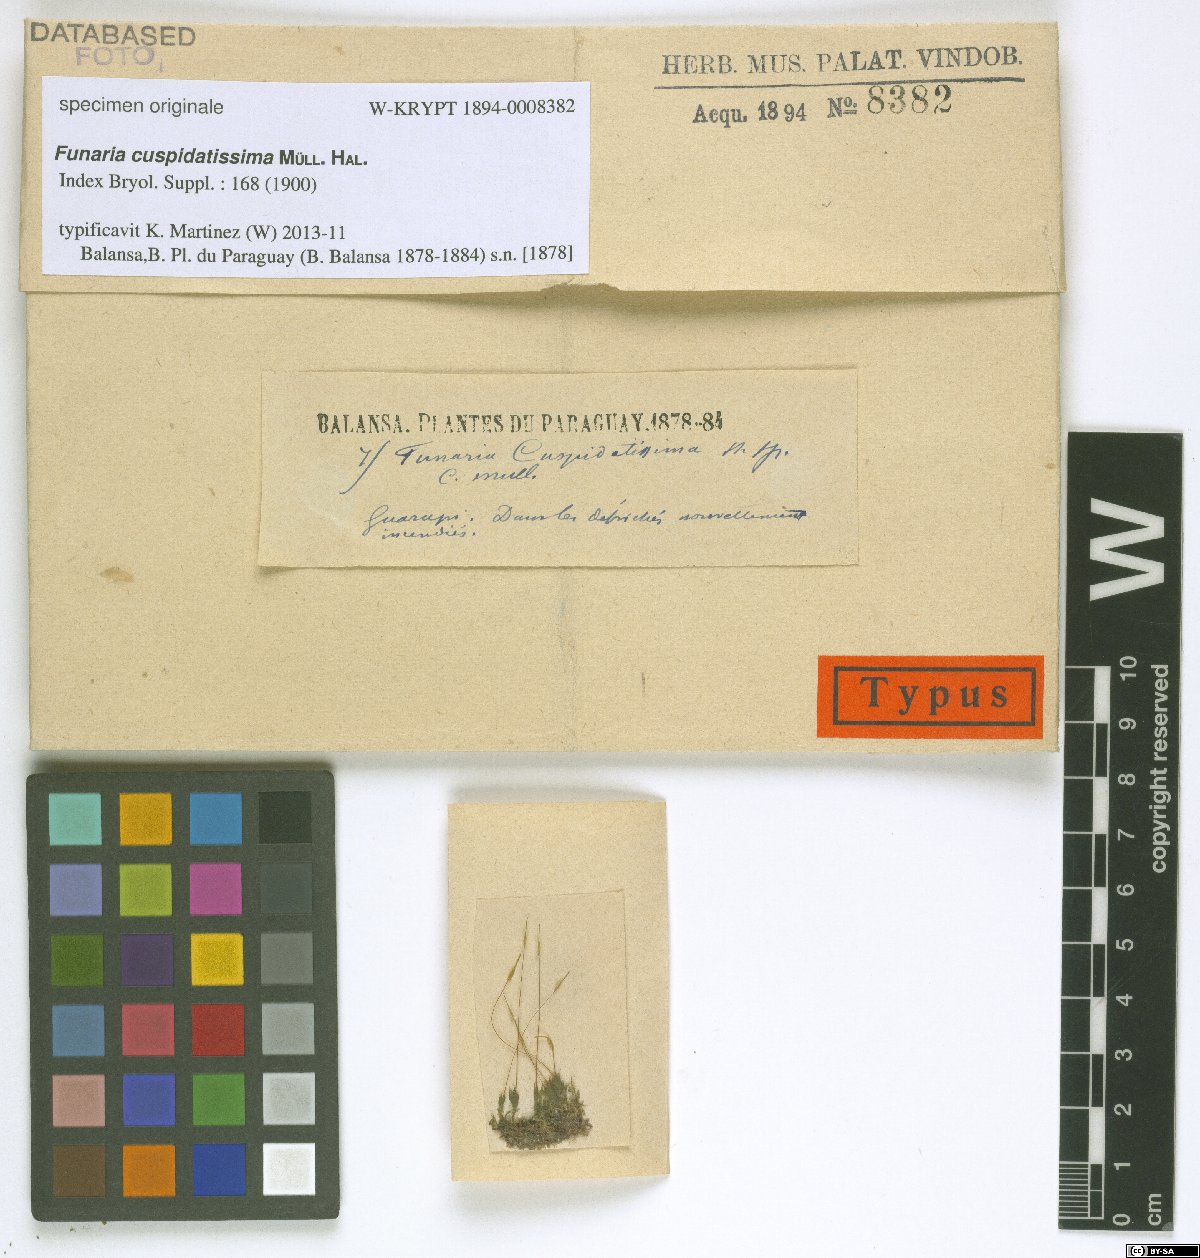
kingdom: Plantae
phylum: Bryophyta
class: Bryopsida
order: Funariales
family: Funariaceae
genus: Funaria
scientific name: Funaria cuspidatissima
